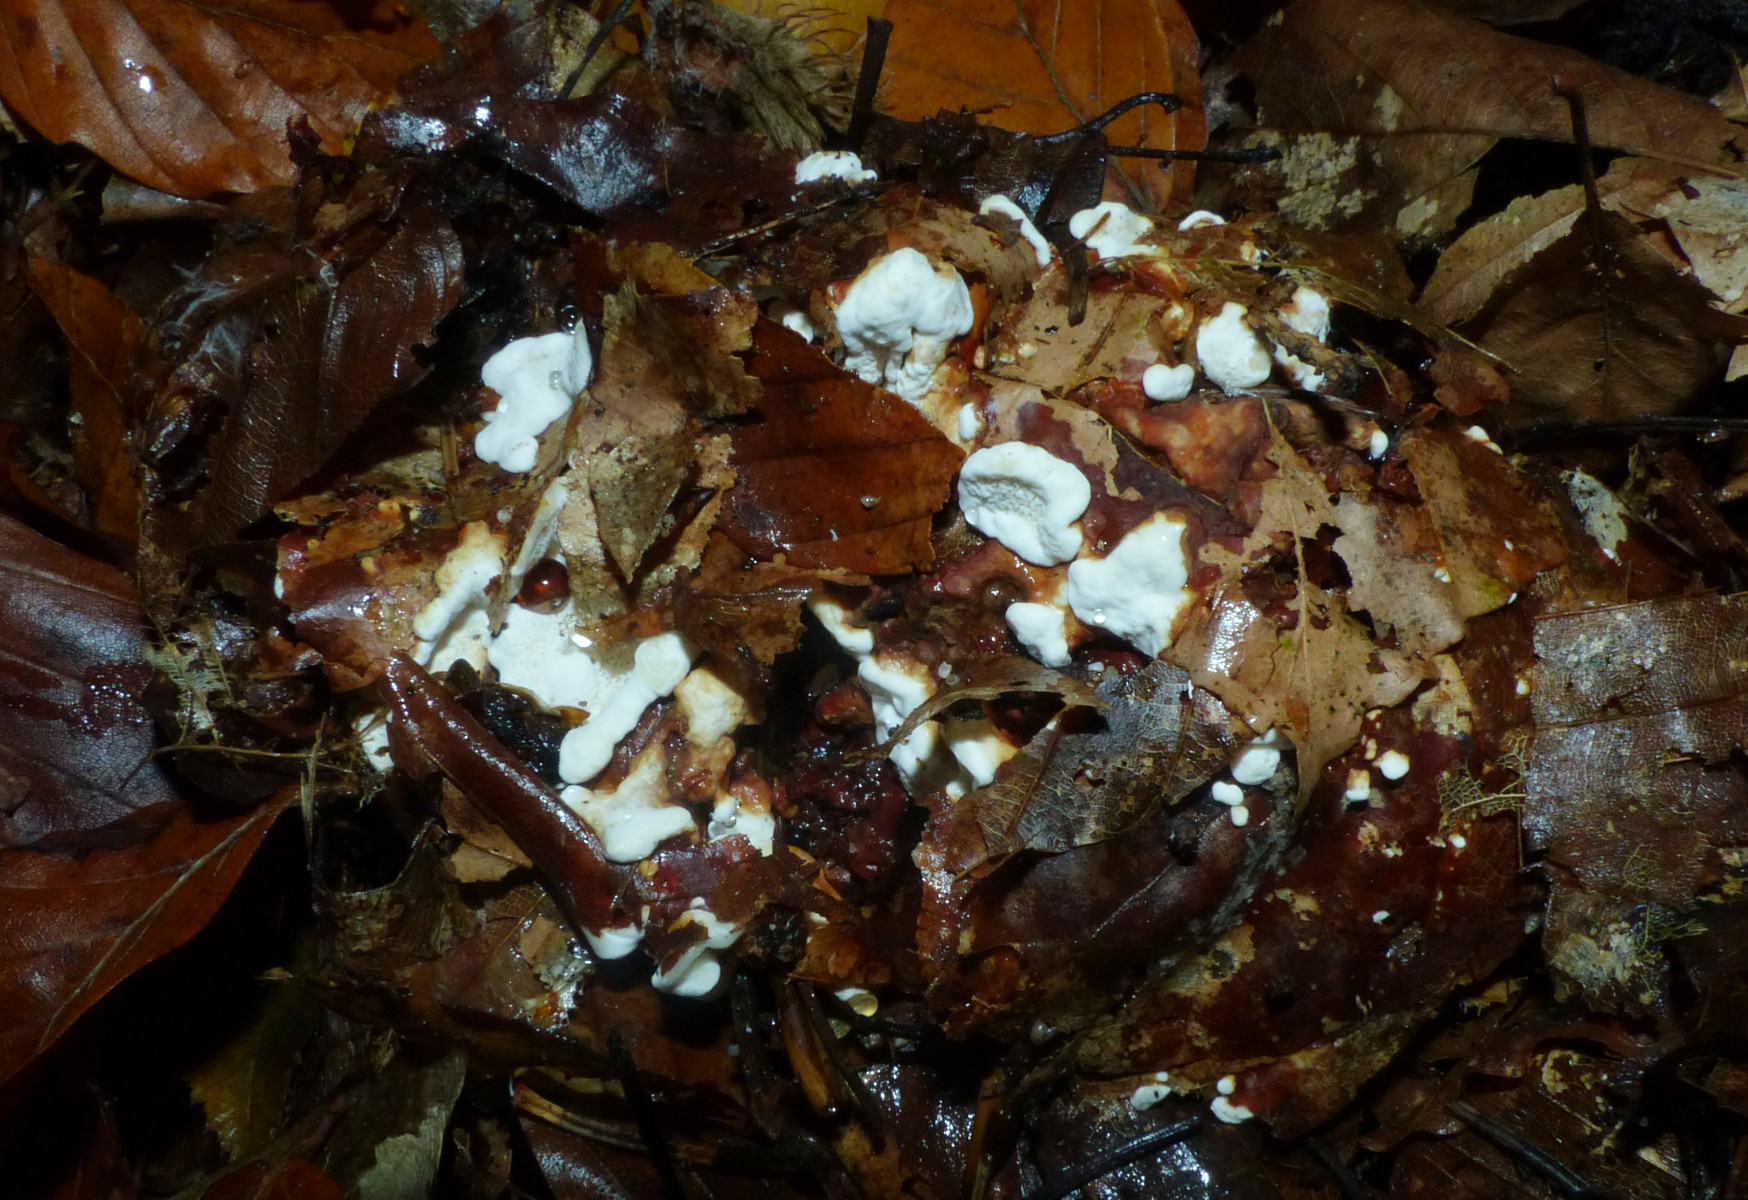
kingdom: Fungi
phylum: Basidiomycota
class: Agaricomycetes
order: Russulales
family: Bondarzewiaceae
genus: Heterobasidion
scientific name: Heterobasidion annosum
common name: almindelig rodfordærver
